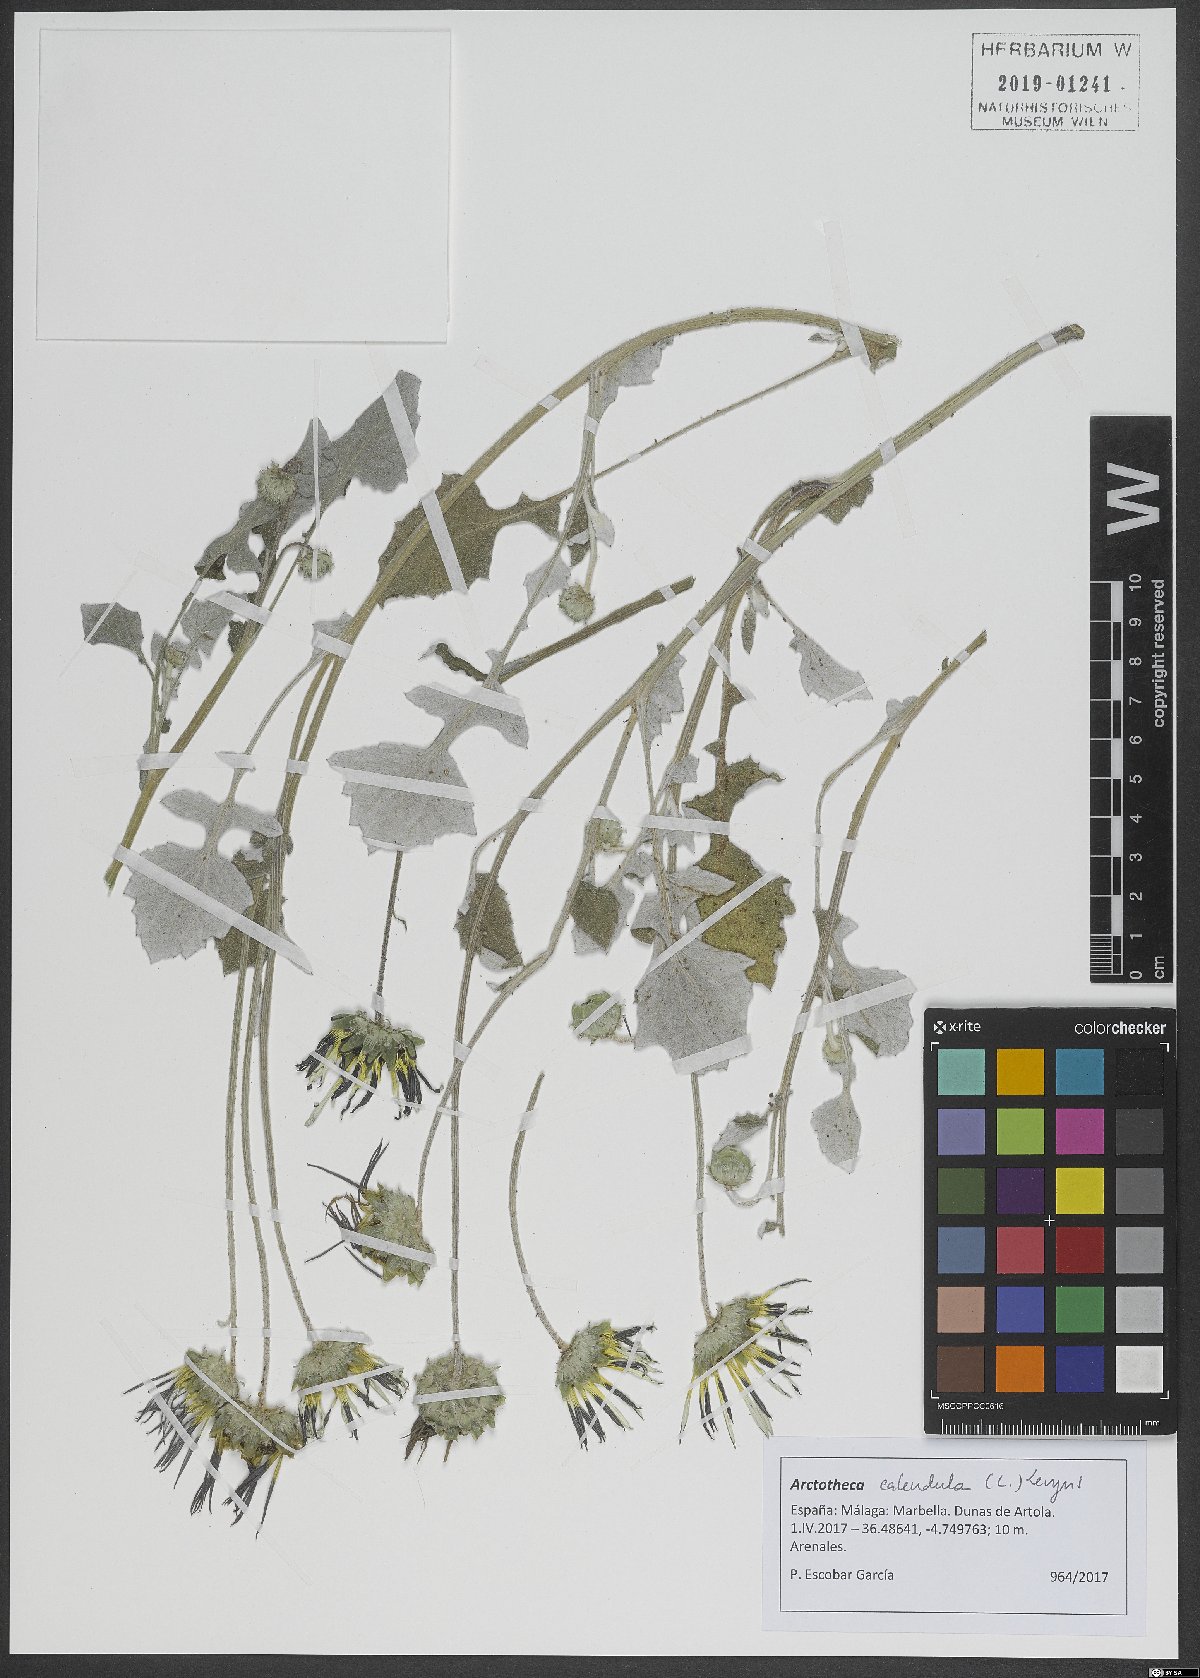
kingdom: Plantae
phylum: Tracheophyta
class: Magnoliopsida
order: Asterales
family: Asteraceae
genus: Arctotheca
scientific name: Arctotheca calendula
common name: Capeweed
